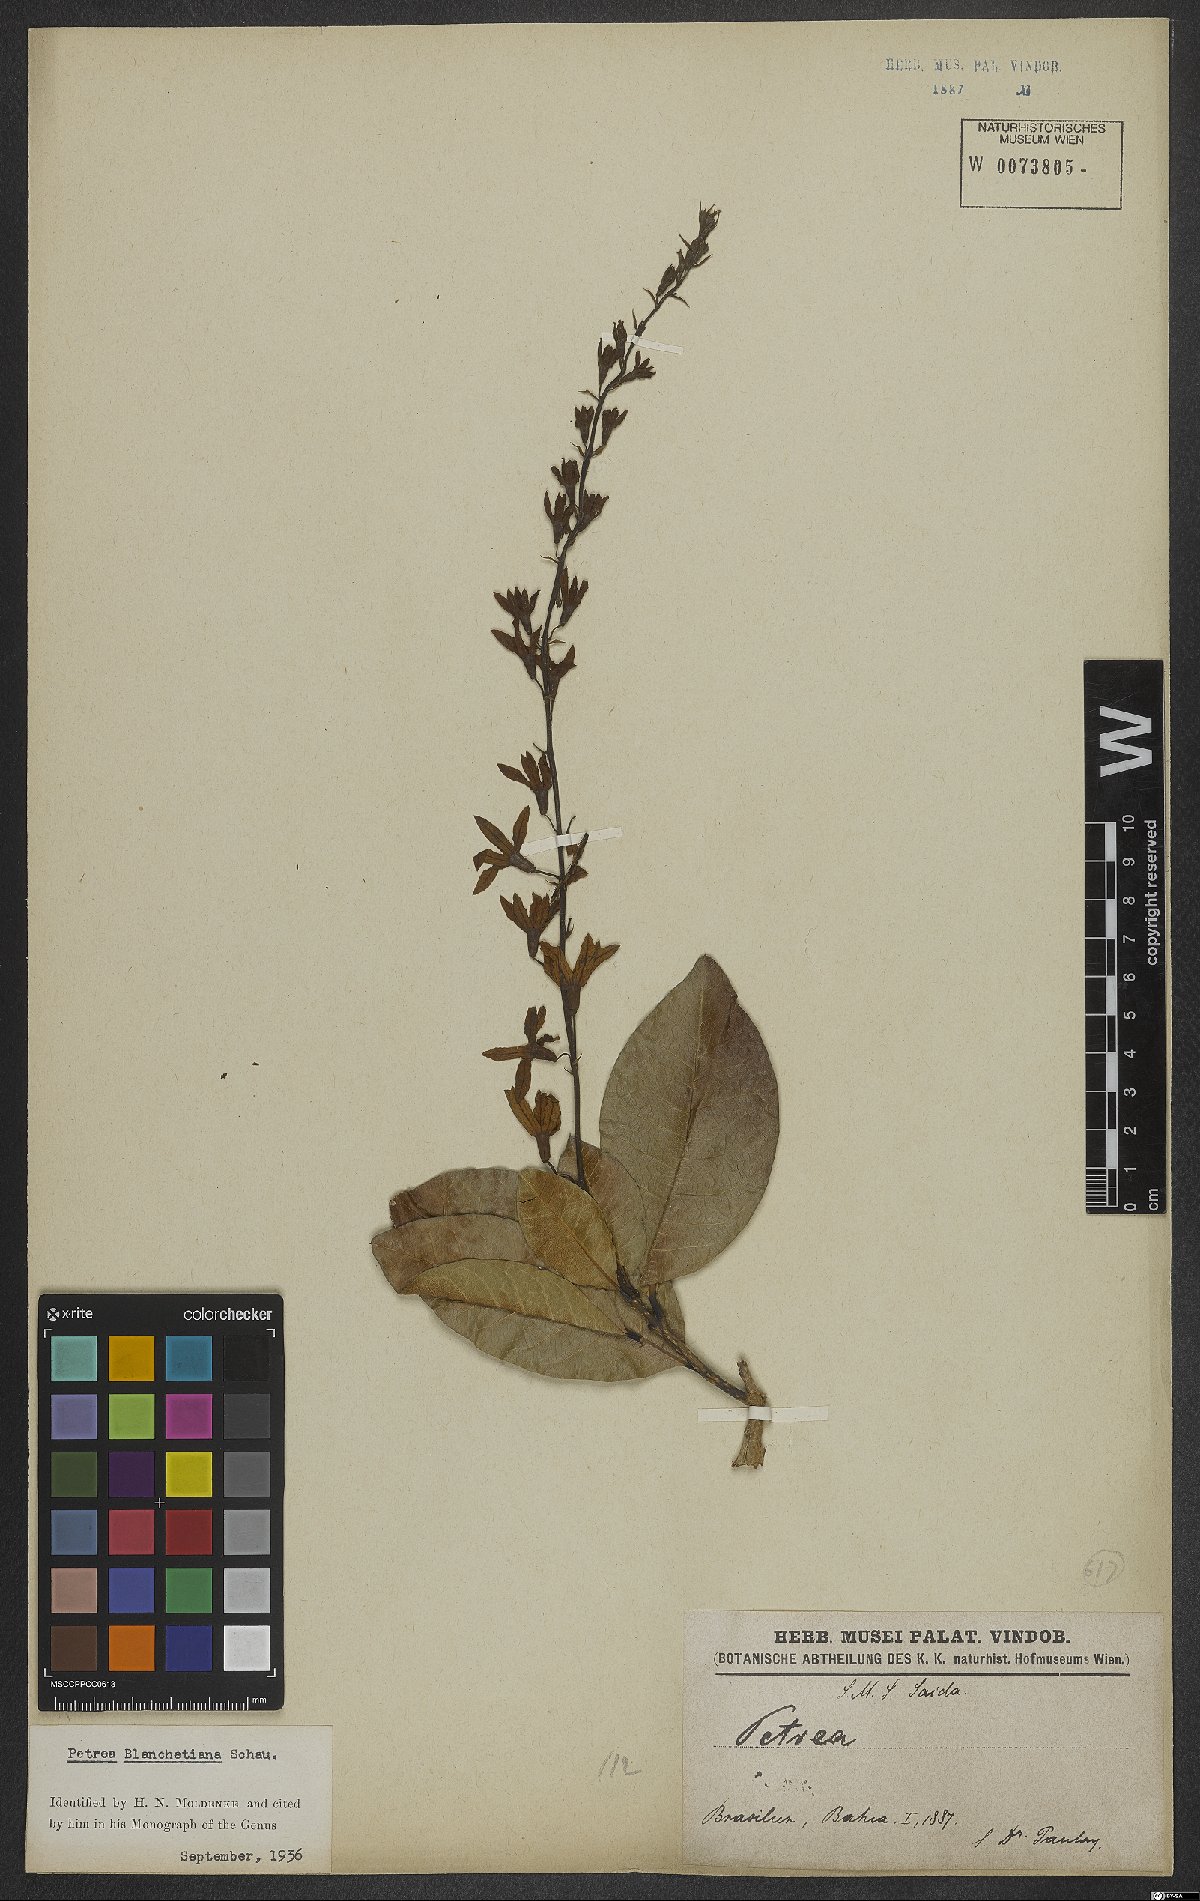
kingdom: Plantae
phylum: Tracheophyta
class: Magnoliopsida
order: Lamiales
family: Verbenaceae
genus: Petrea
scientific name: Petrea blanchetiana
